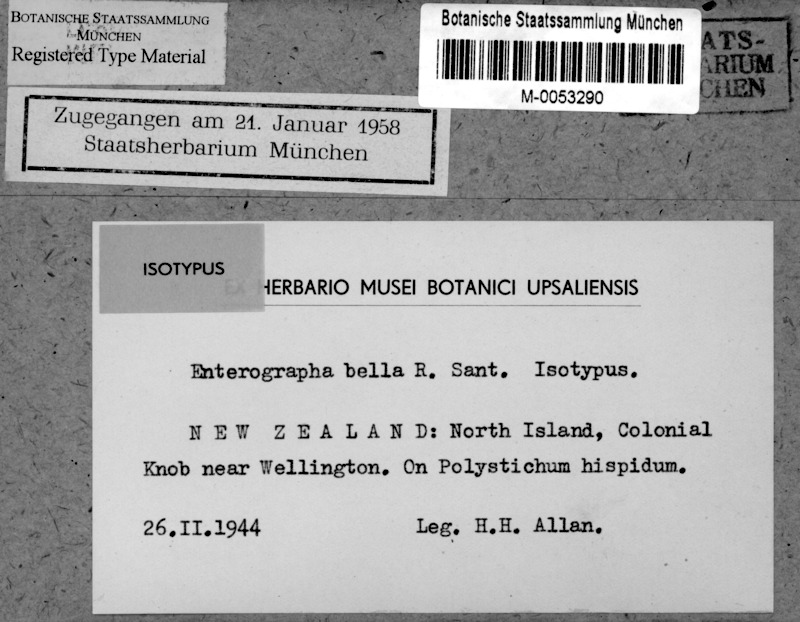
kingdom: Fungi
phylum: Ascomycota
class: Arthoniomycetes
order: Arthoniales
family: Roccellaceae
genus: Enterographa
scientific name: Enterographa bella
